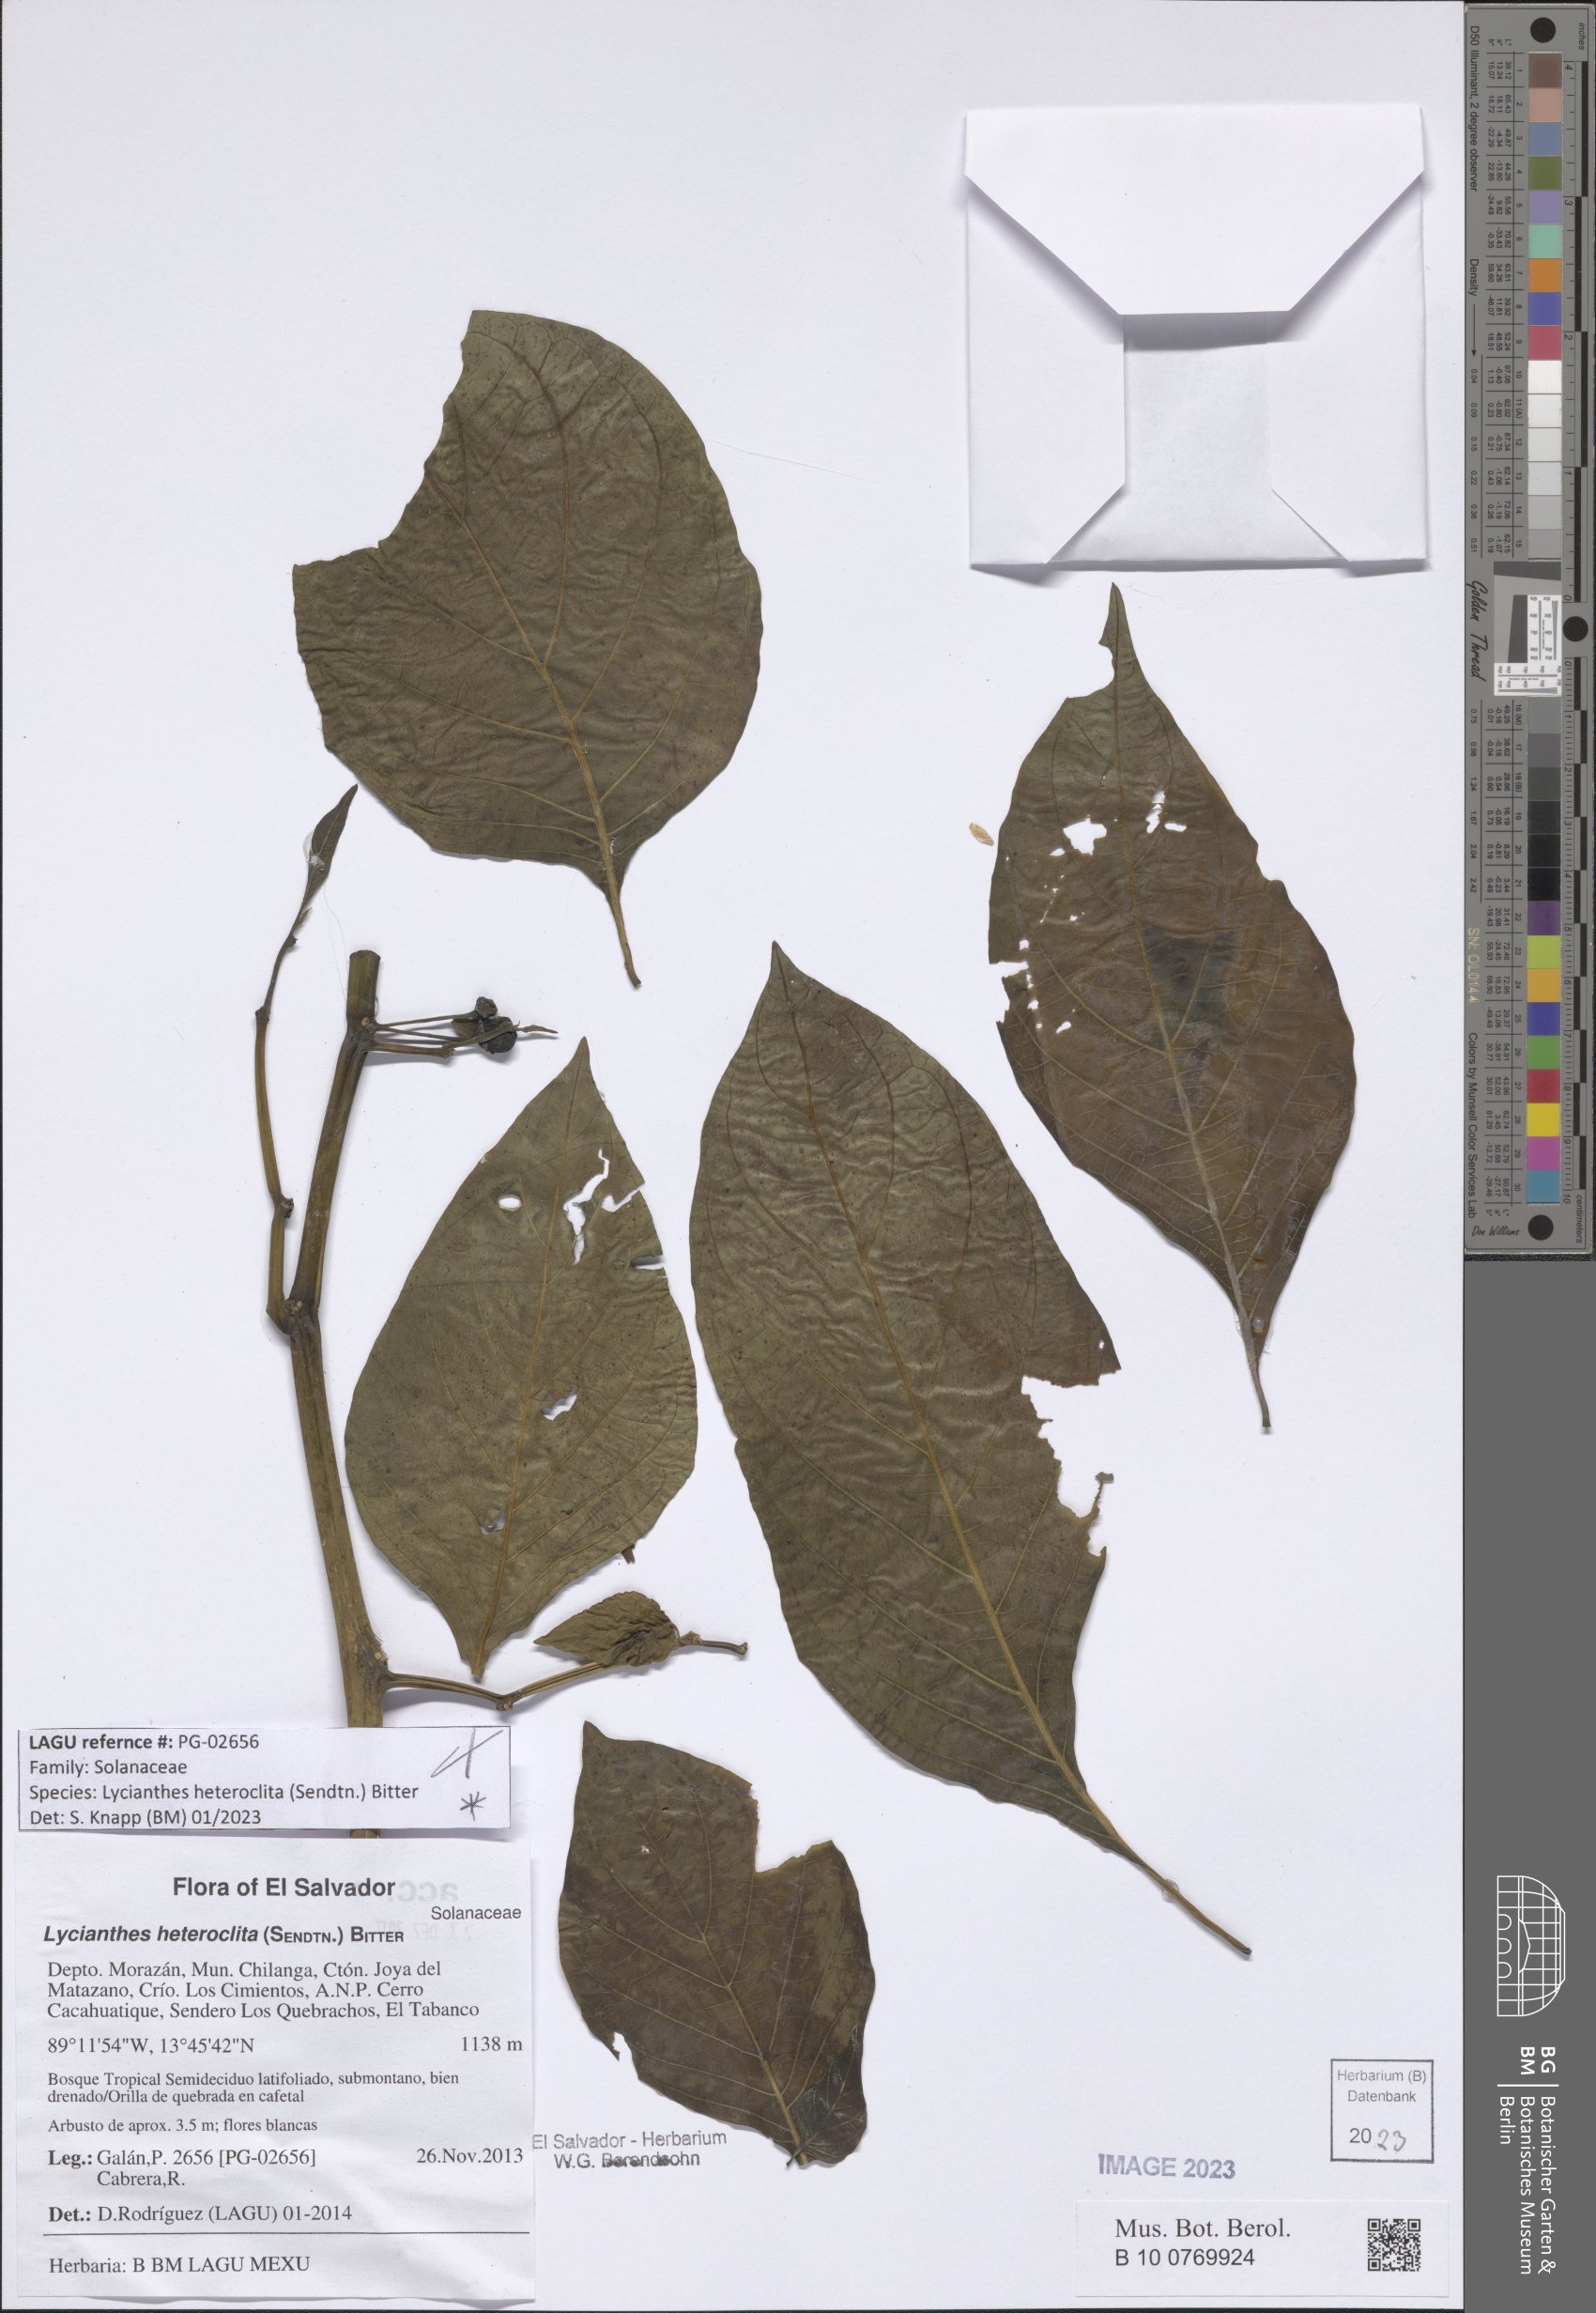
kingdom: Plantae
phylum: Tracheophyta
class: Magnoliopsida
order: Solanales
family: Solanaceae
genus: Lycianthes
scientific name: Lycianthes heteroclita
